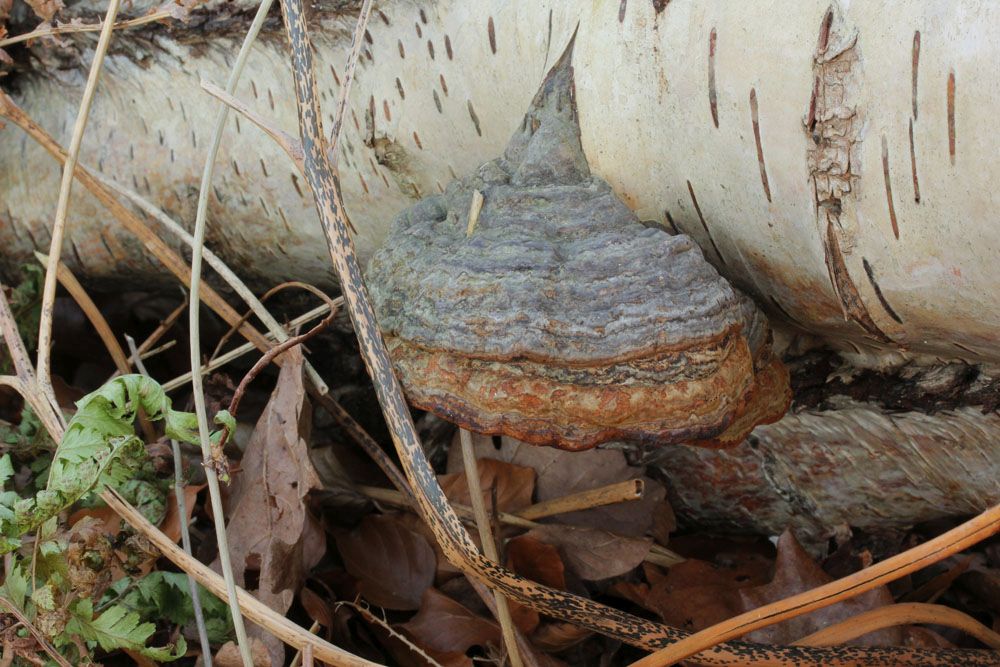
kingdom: Fungi
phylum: Basidiomycota
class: Agaricomycetes
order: Polyporales
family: Polyporaceae
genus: Fomes
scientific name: Fomes fomentarius
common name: tøndersvamp
